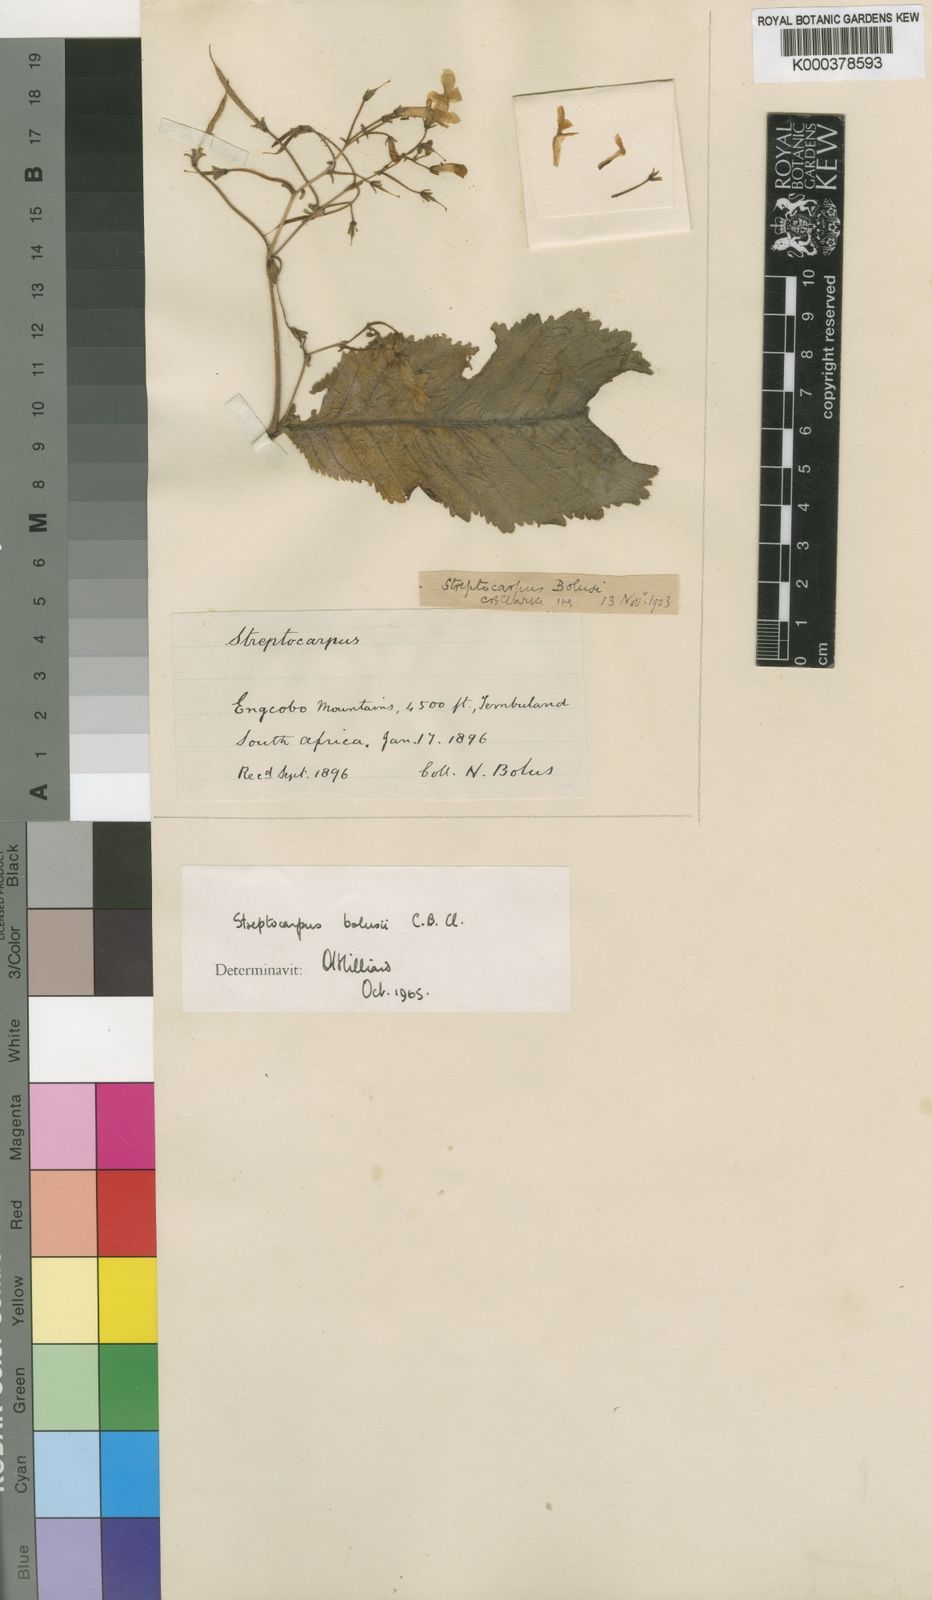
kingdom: Plantae
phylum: Tracheophyta
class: Magnoliopsida
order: Lamiales
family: Gesneriaceae
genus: Streptocarpus
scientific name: Streptocarpus bolusii
